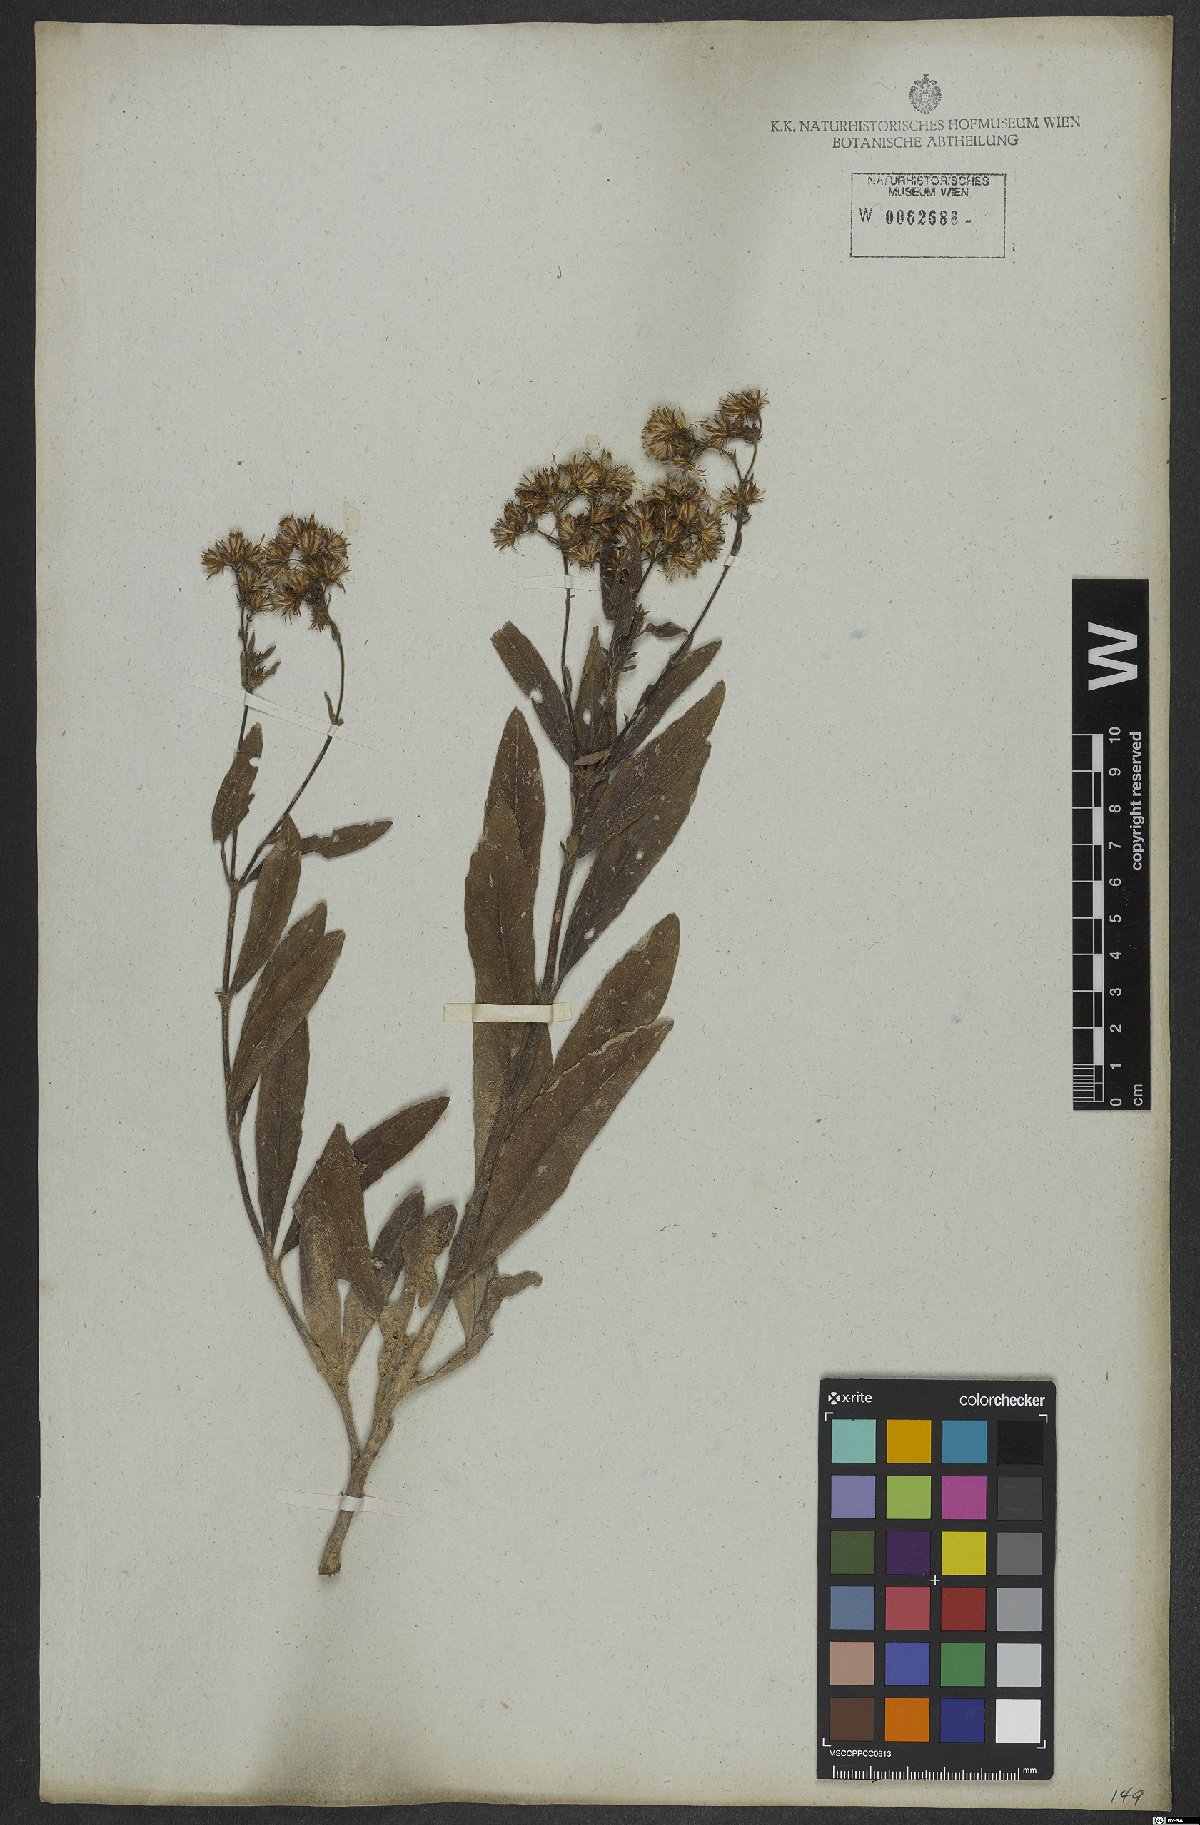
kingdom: Plantae
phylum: Tracheophyta
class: Magnoliopsida
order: Asterales
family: Asteraceae
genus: Ayapana
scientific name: Ayapana amygdalina
